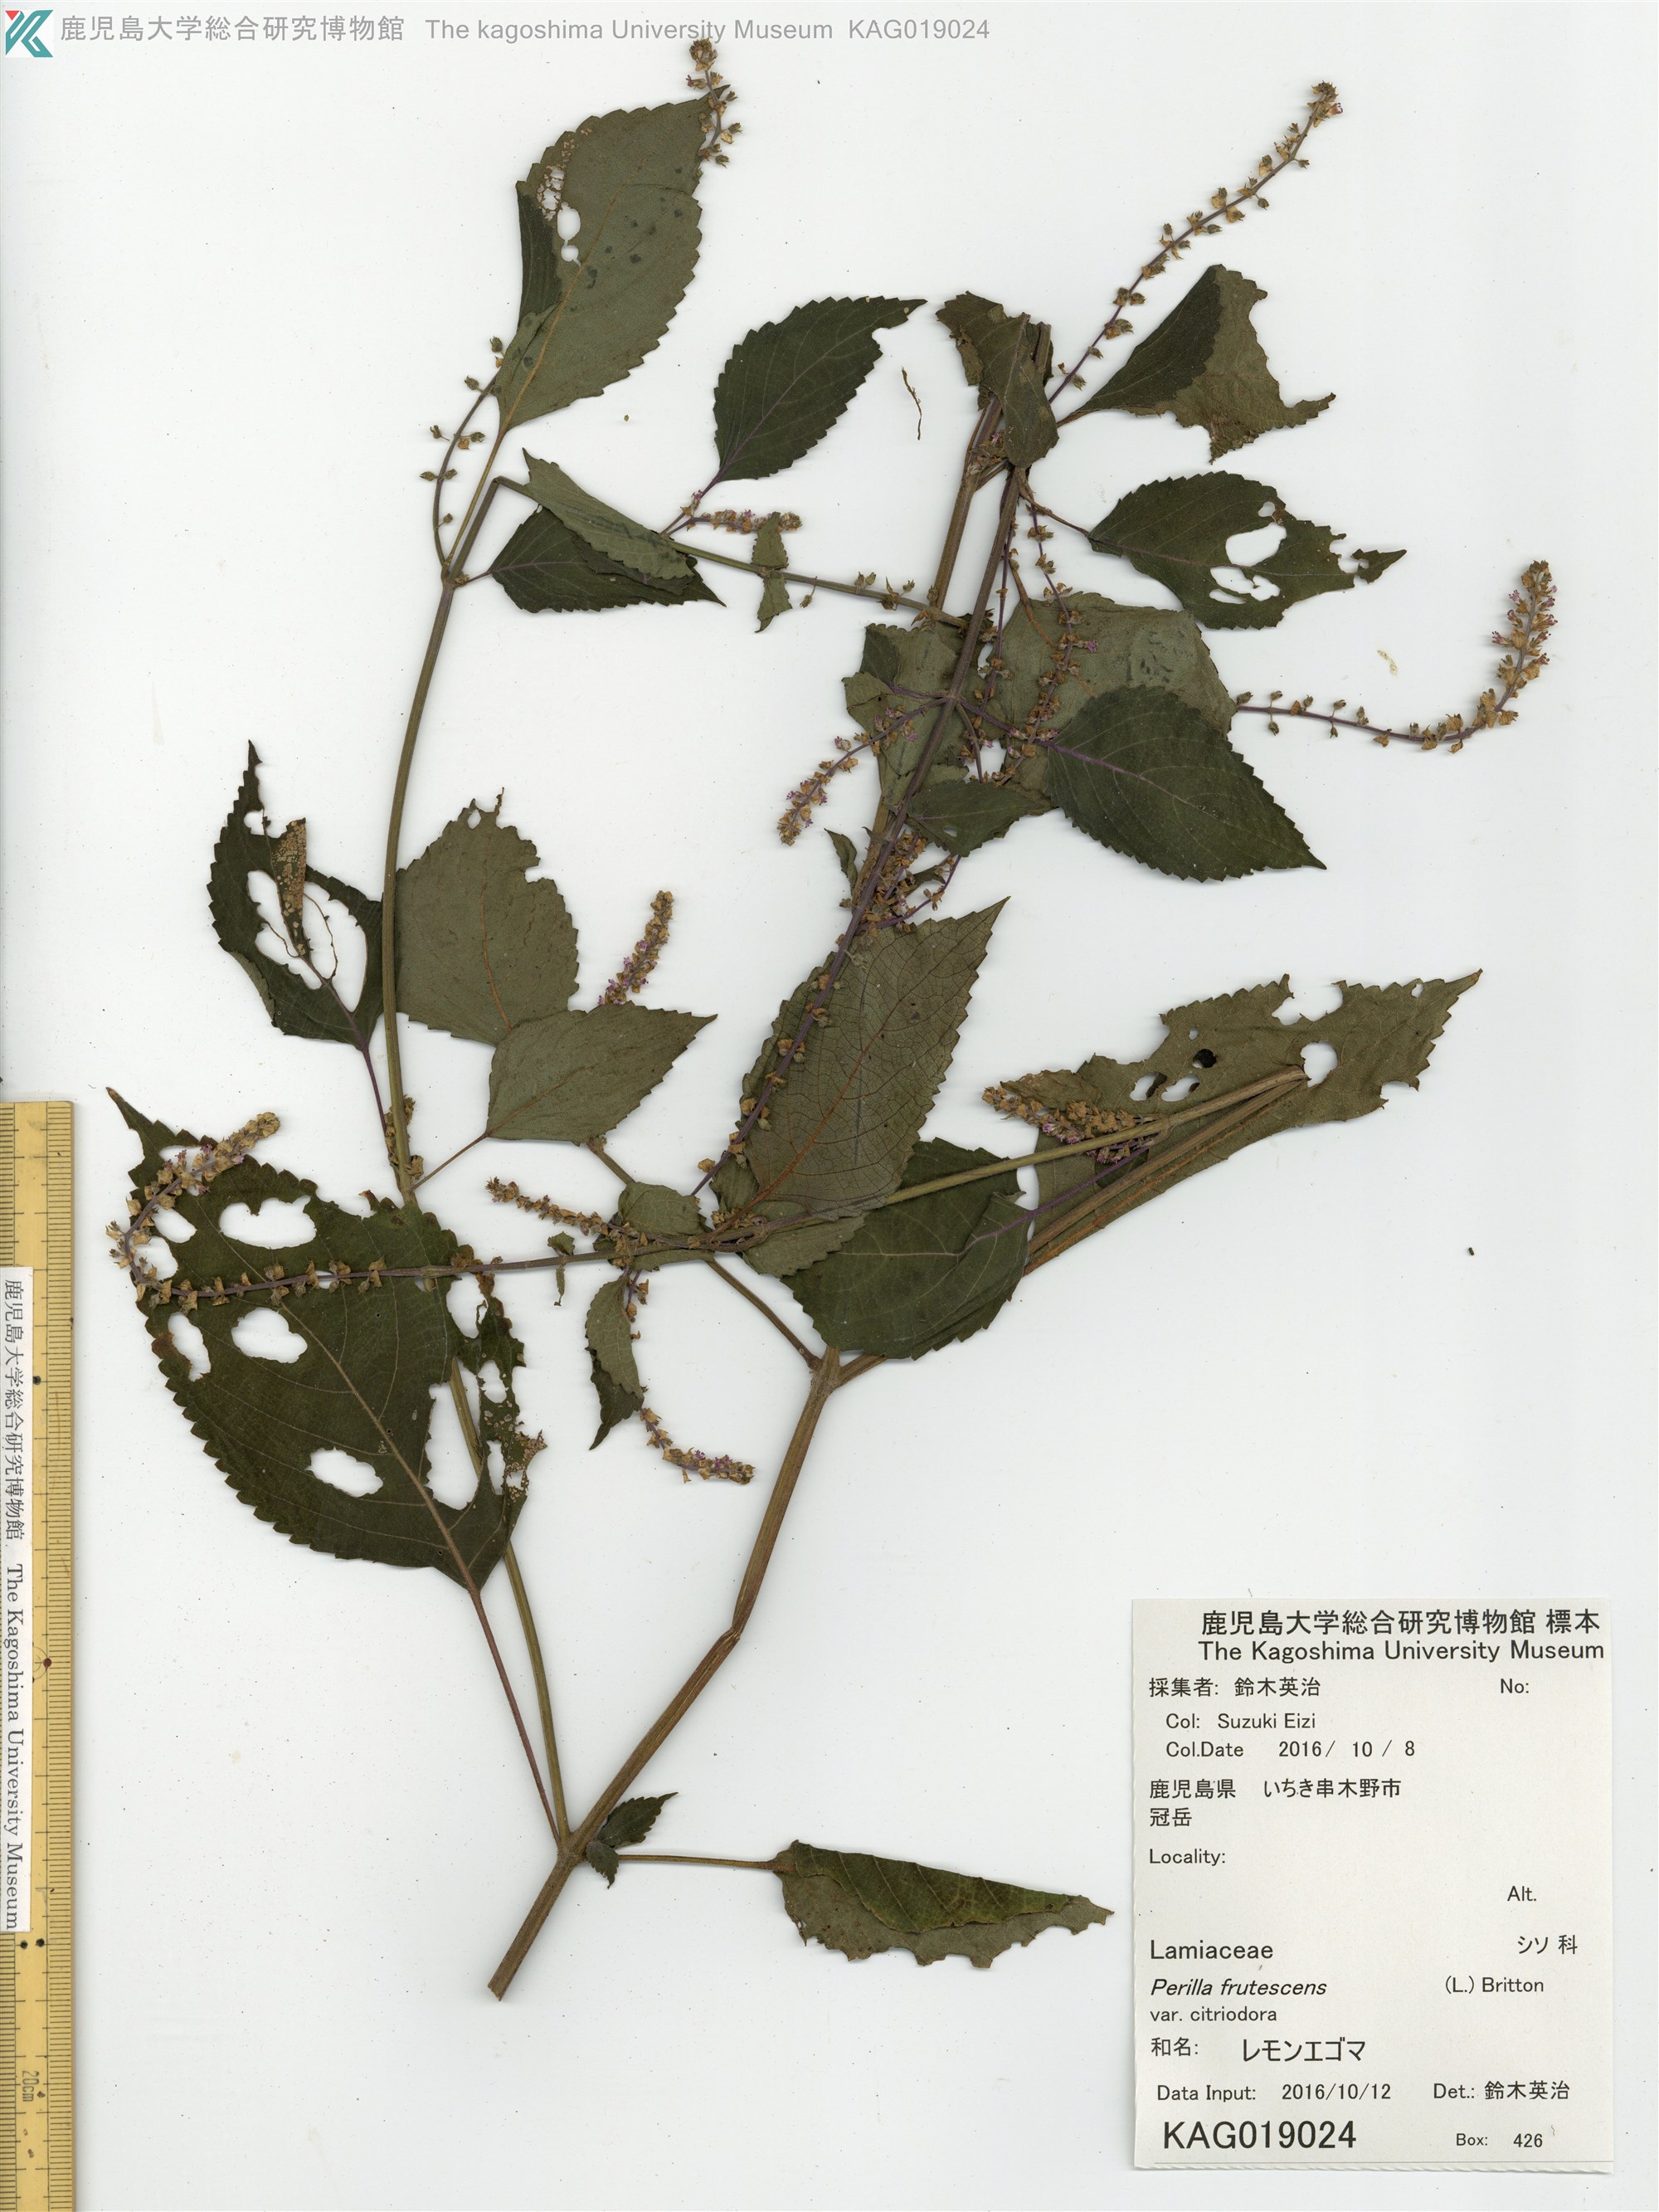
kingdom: Plantae
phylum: Tracheophyta
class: Magnoliopsida
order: Lamiales
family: Lamiaceae
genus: Perilla
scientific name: Perilla frutescens
